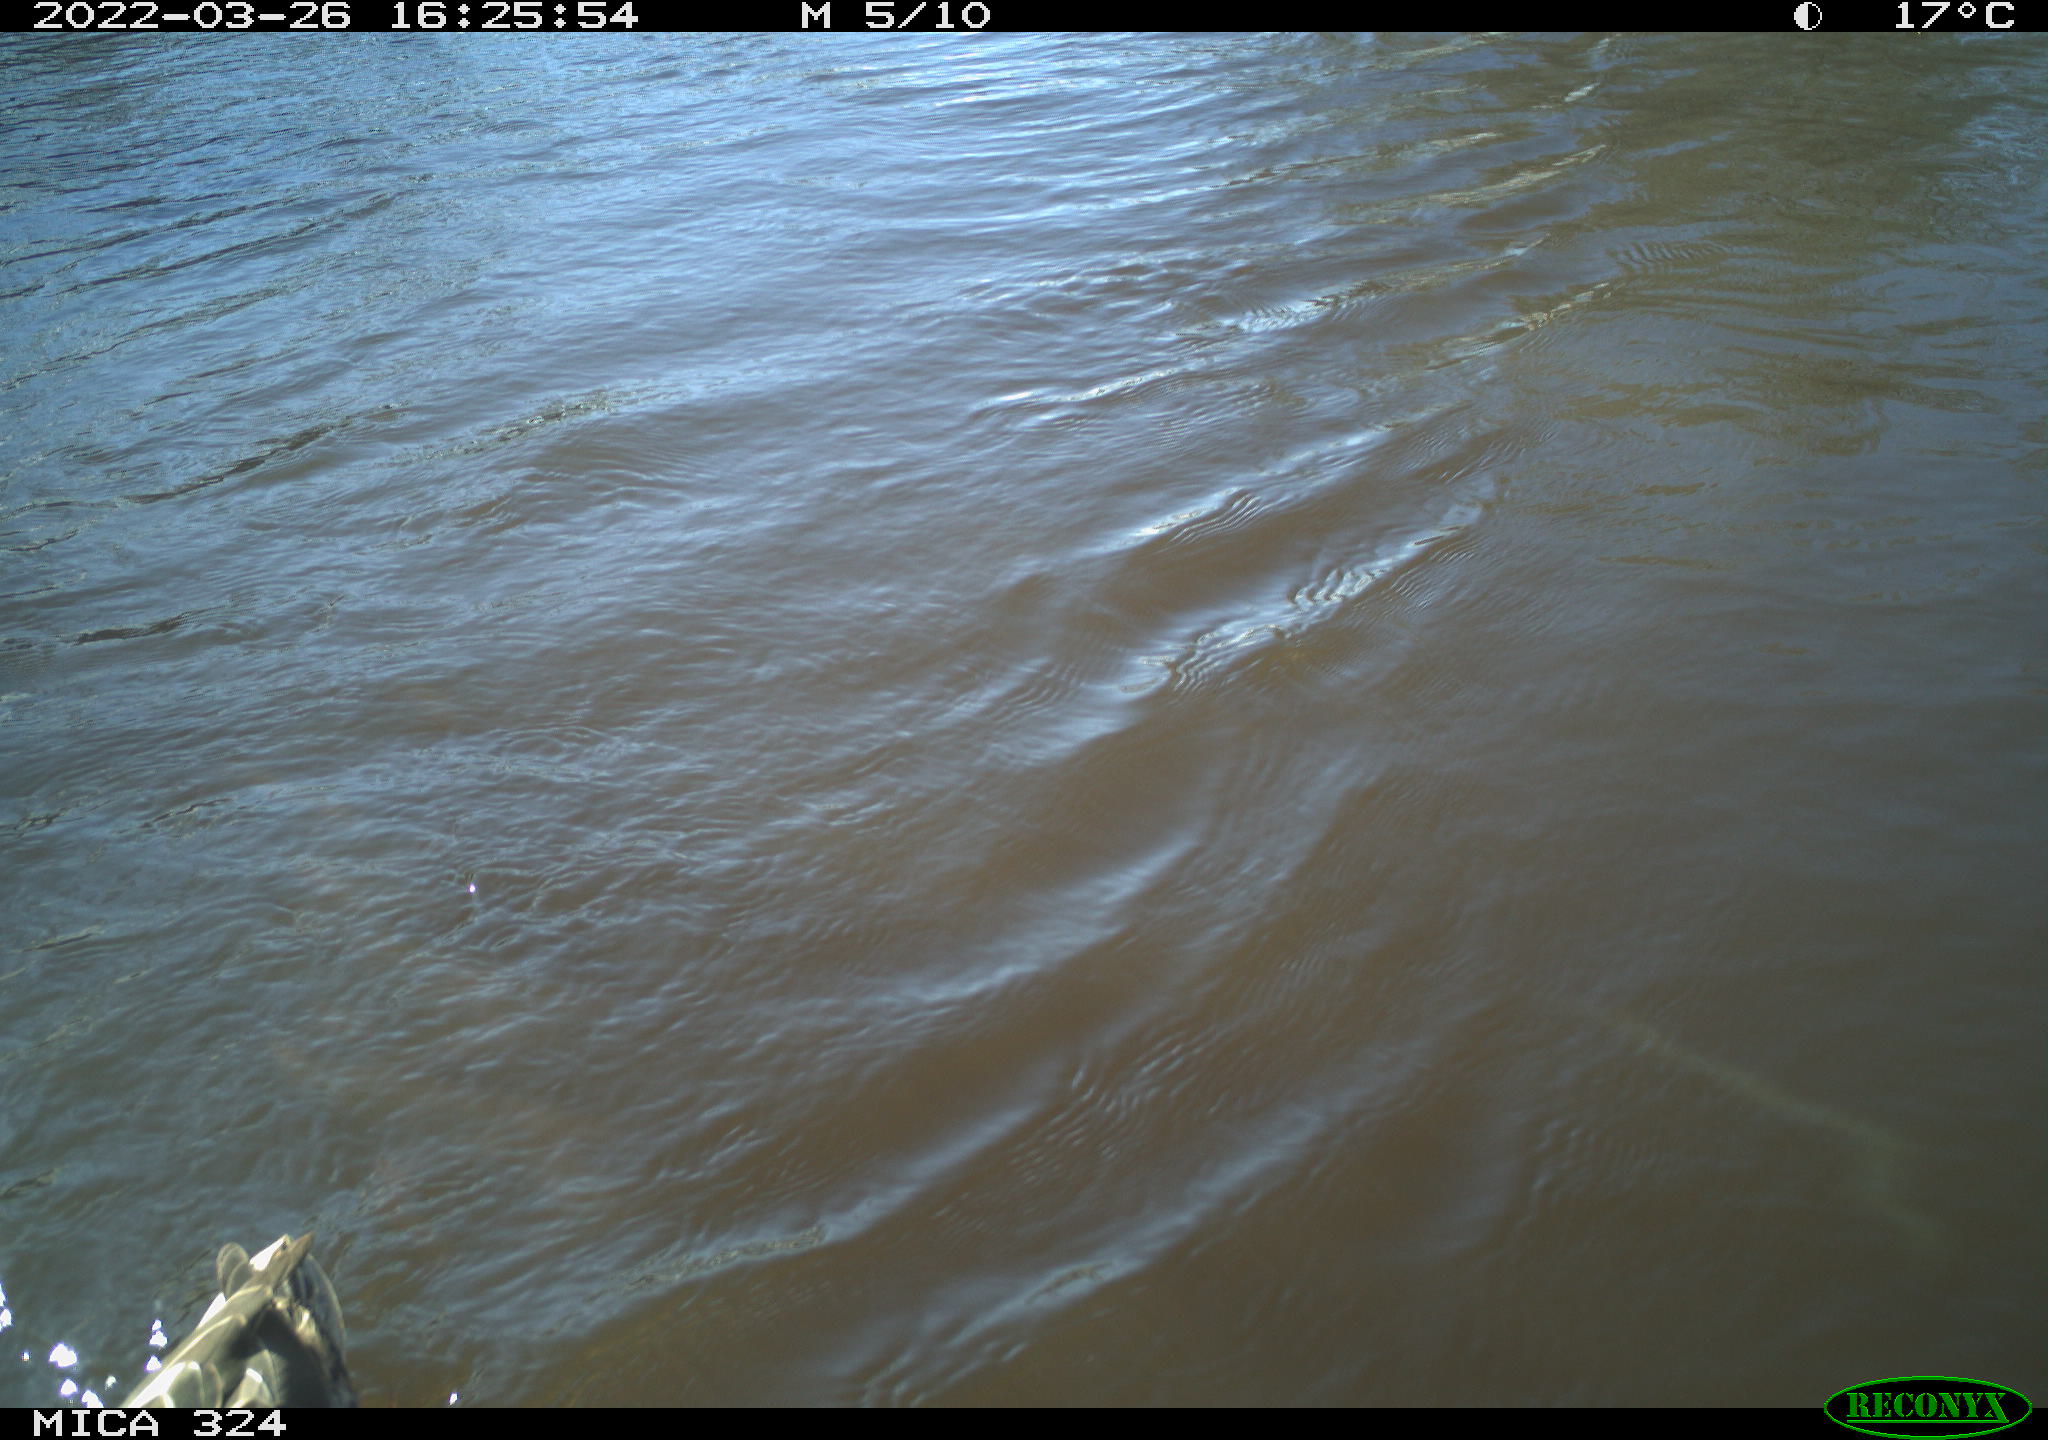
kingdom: Animalia
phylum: Chordata
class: Aves
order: Anseriformes
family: Anatidae
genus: Anas
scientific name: Anas platyrhynchos
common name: Mallard
